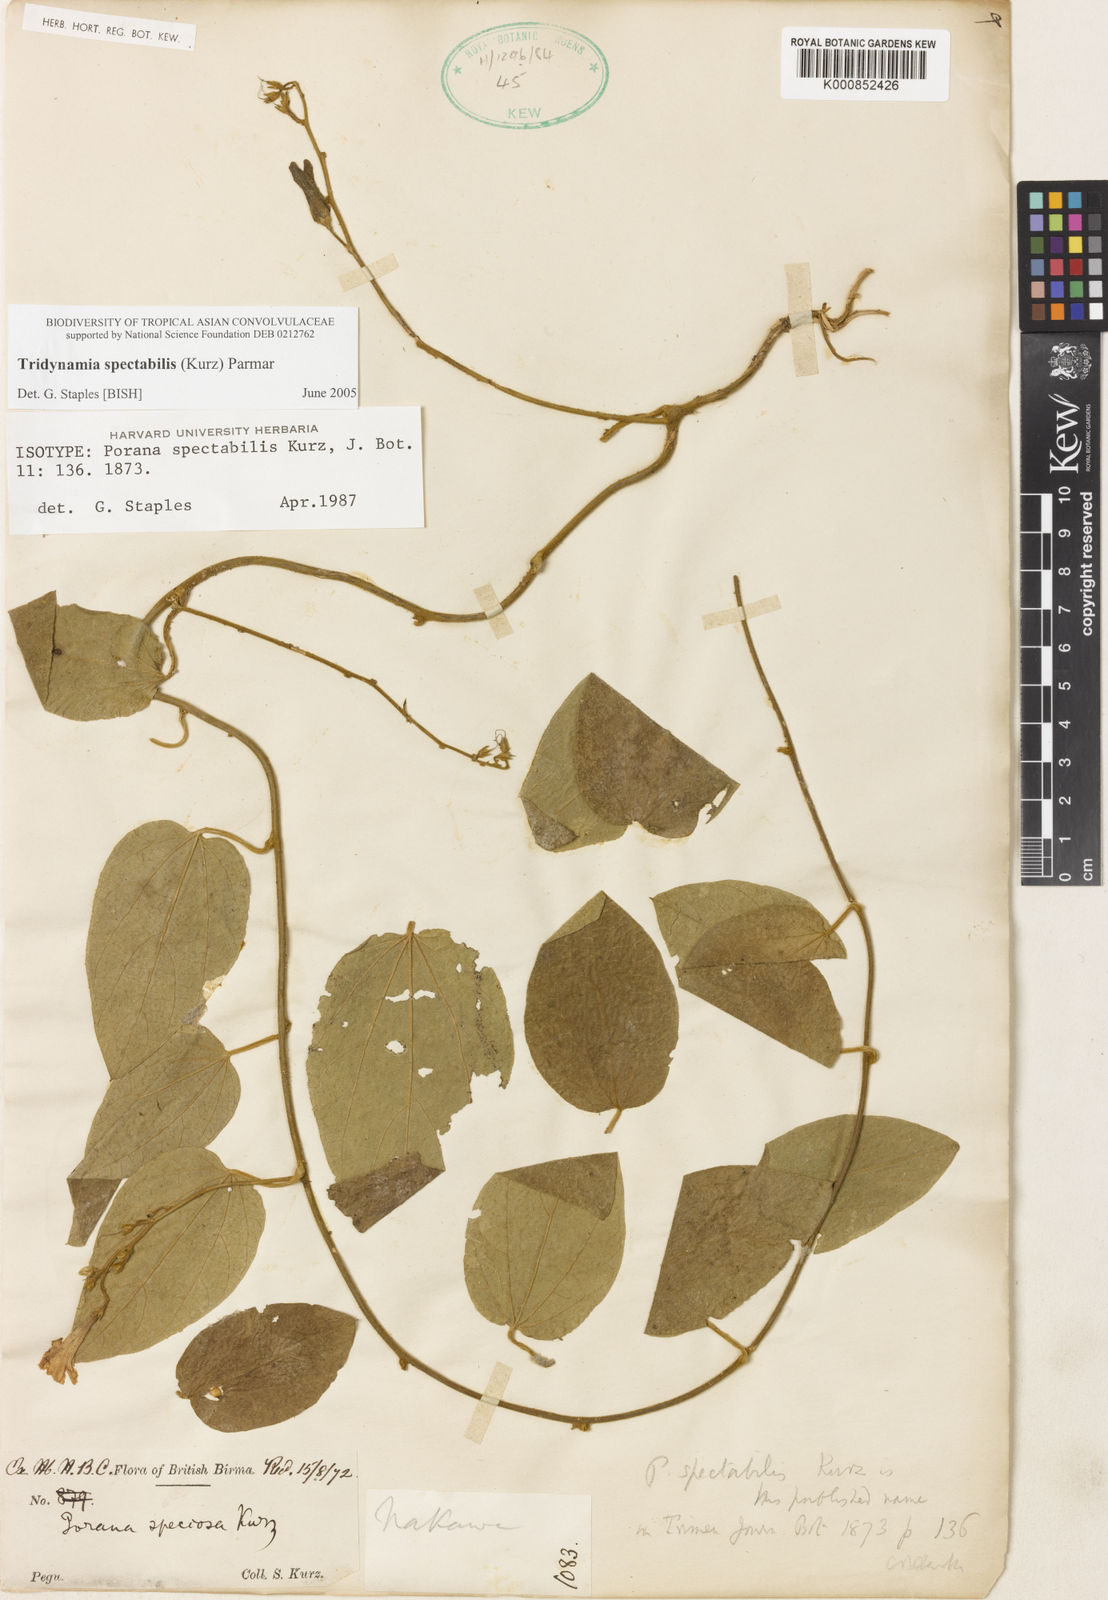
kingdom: Plantae
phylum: Tracheophyta
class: Magnoliopsida
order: Solanales
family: Convolvulaceae
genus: Tridynamia
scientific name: Tridynamia spectabilis
